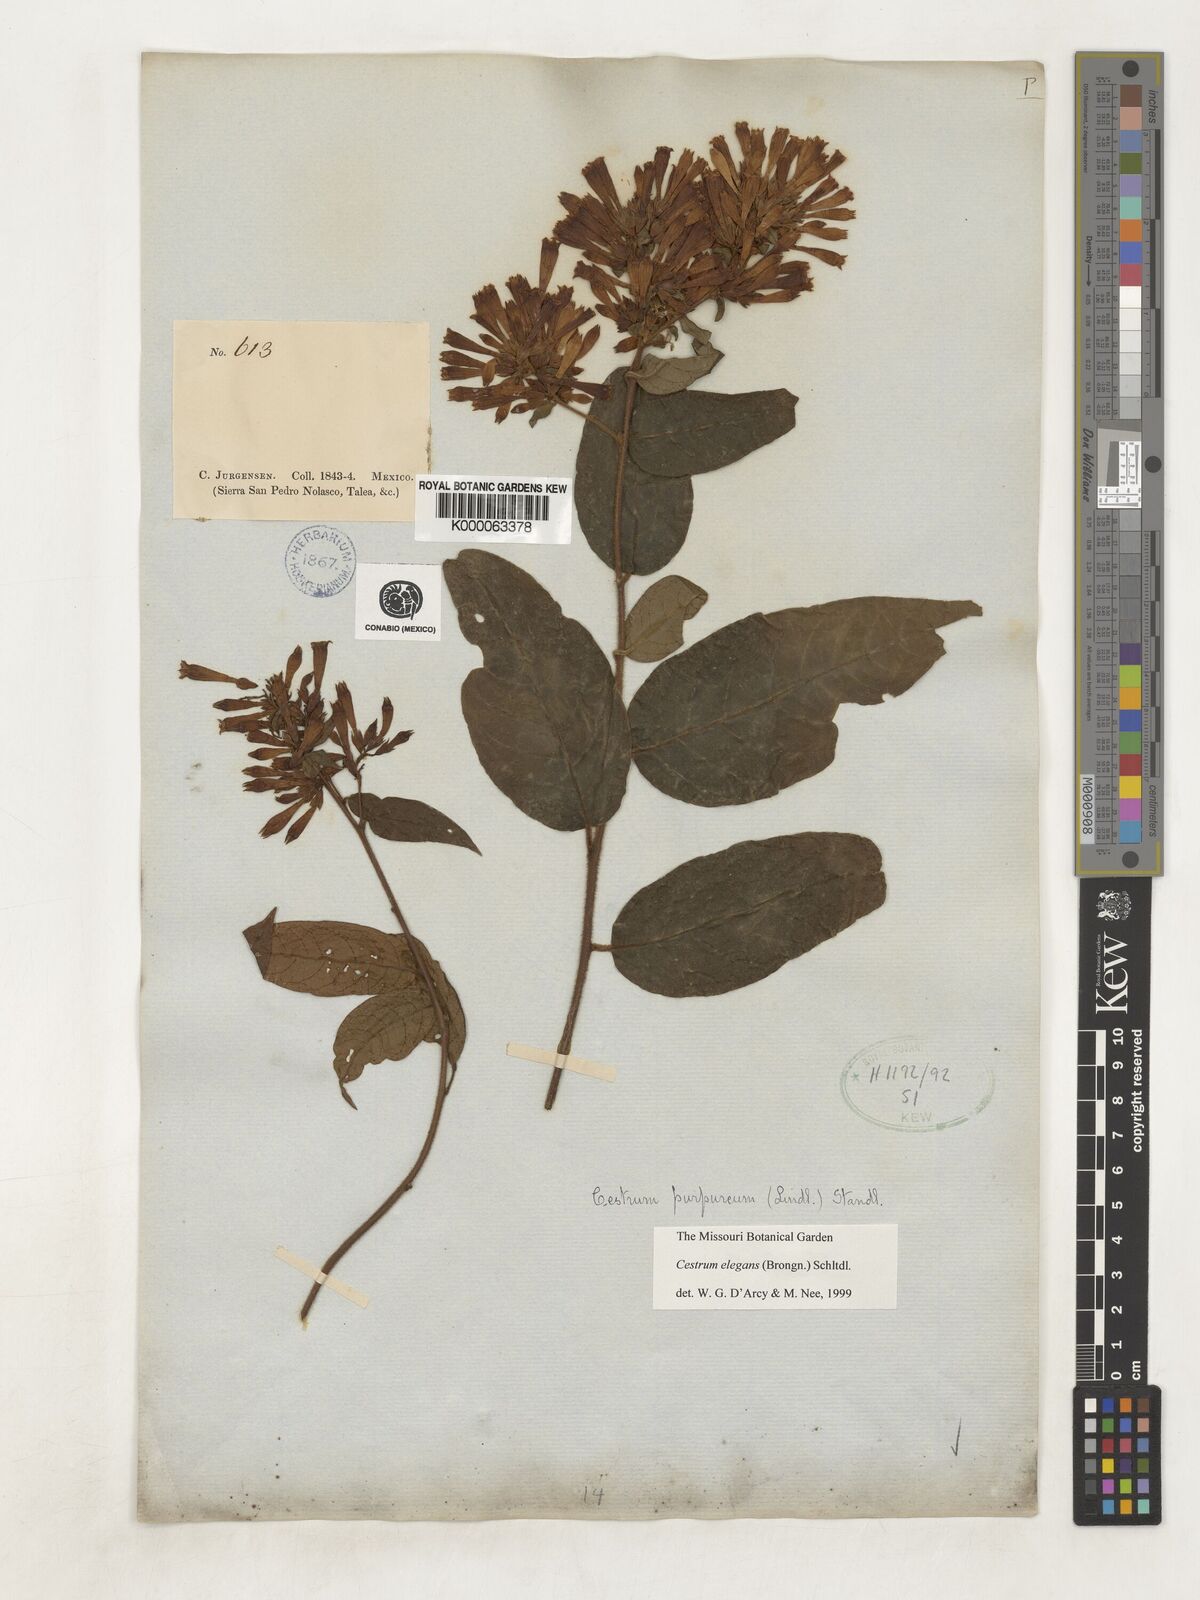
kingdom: Plantae
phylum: Tracheophyta
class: Magnoliopsida
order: Solanales
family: Solanaceae
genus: Cestrum
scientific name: Cestrum elegans
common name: Crimson cestrum
